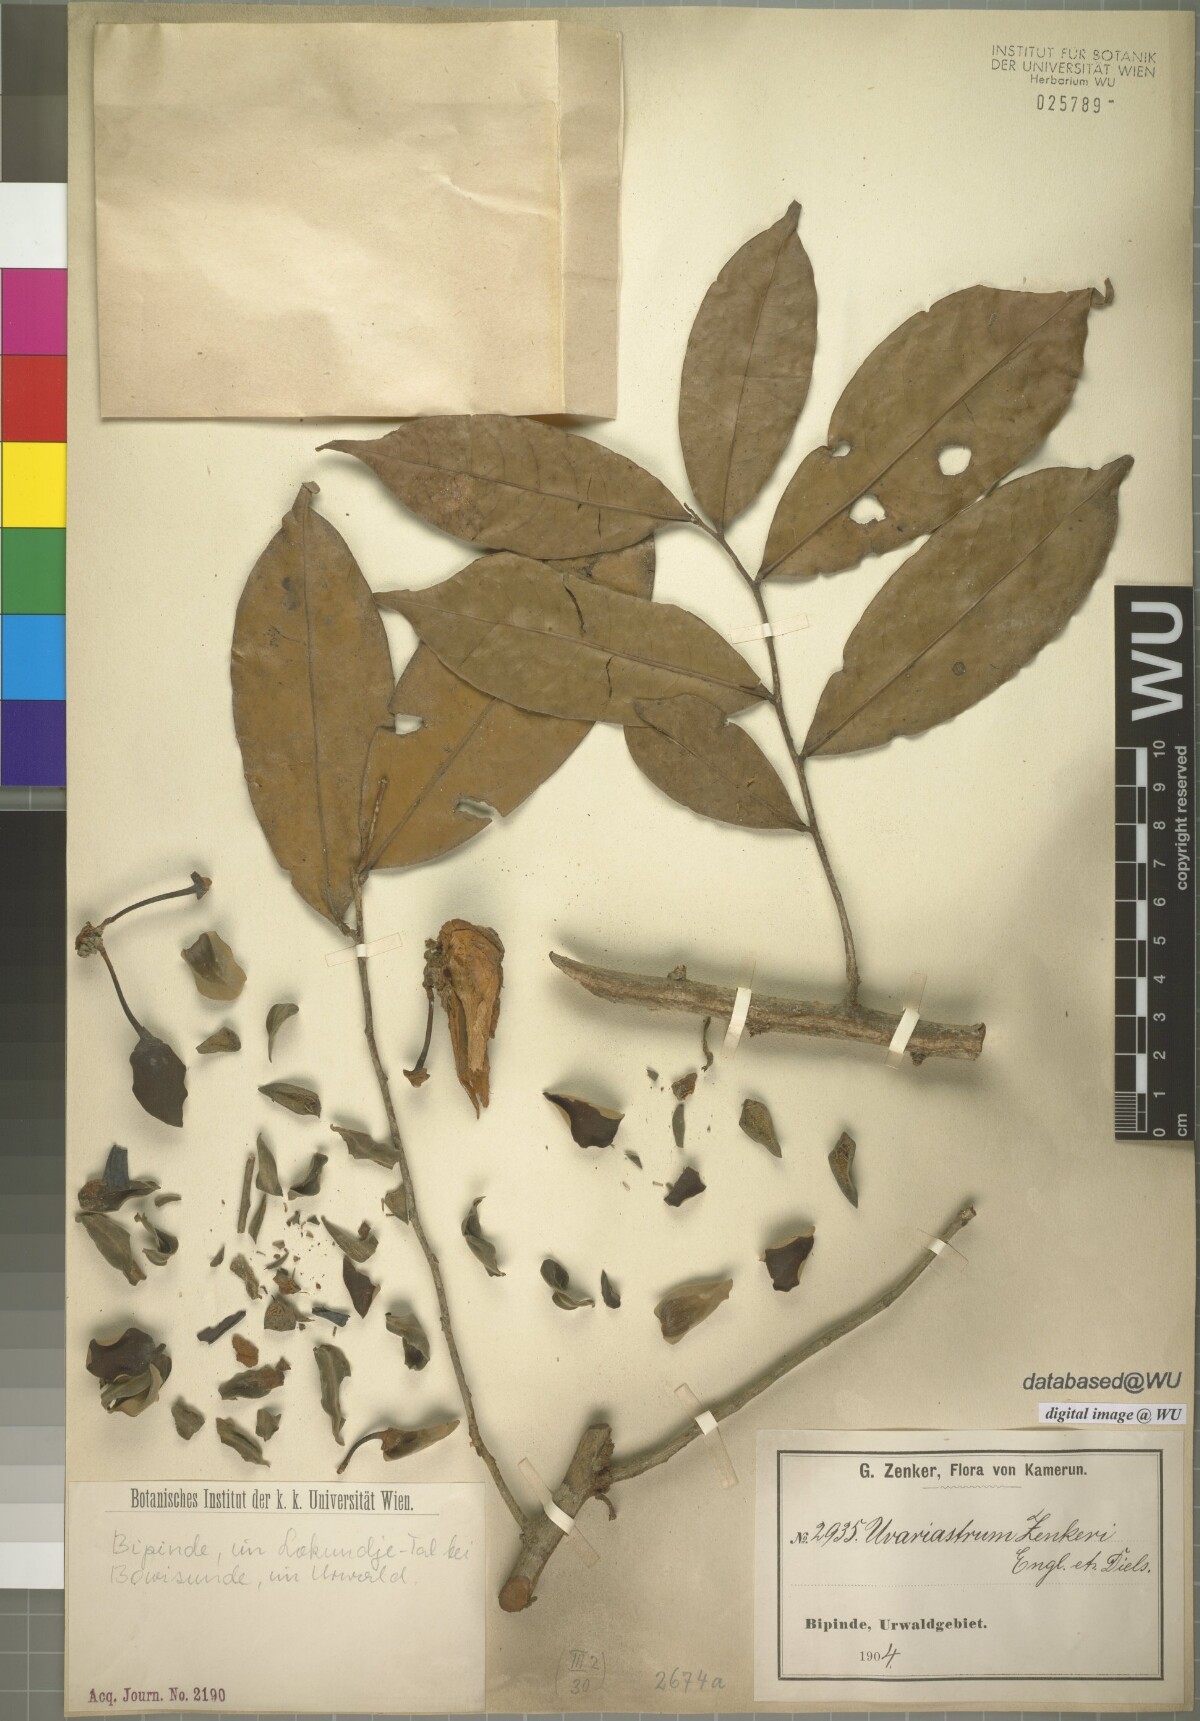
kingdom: Plantae
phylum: Tracheophyta
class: Magnoliopsida
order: Magnoliales
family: Annonaceae
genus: Uvariastrum
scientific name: Uvariastrum zenkeri
